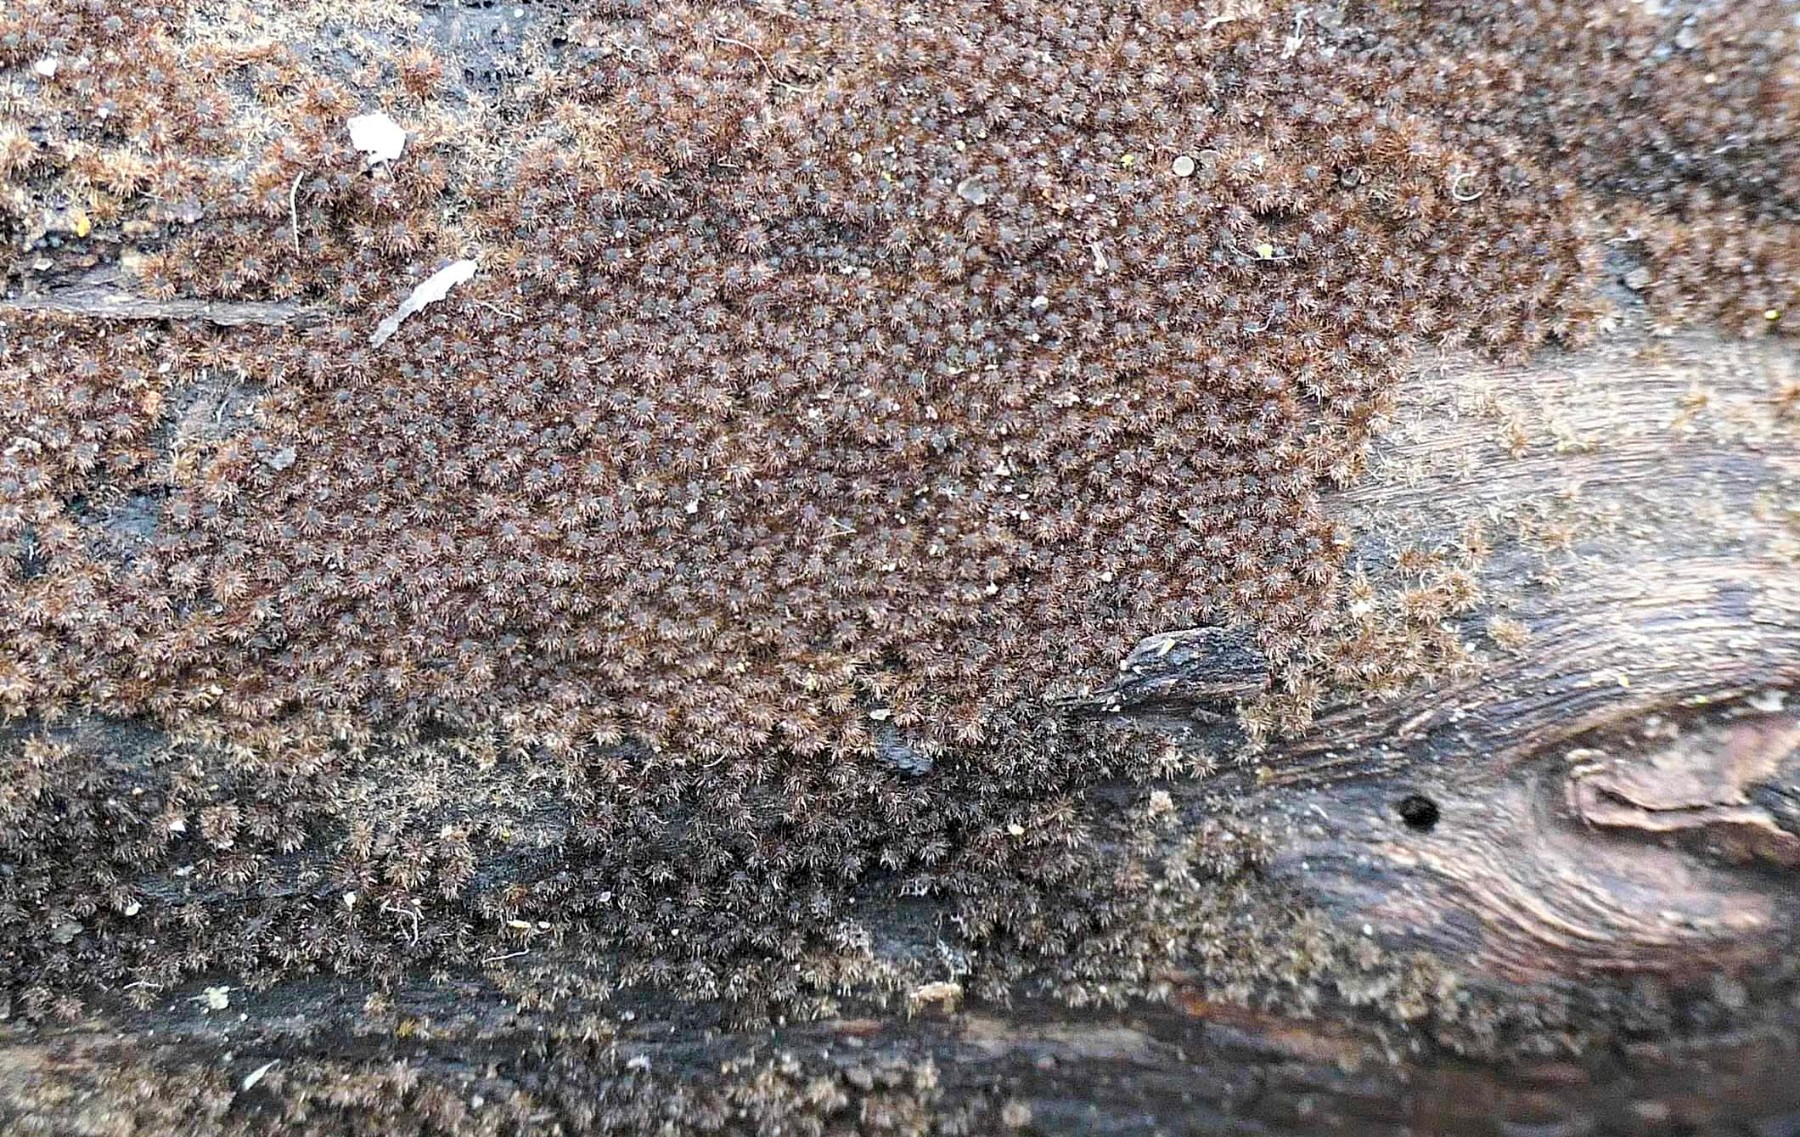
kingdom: Fungi
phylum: Ascomycota
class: Sordariomycetes
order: Sordariales
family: Helminthosphaeriaceae
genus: Echinosphaeria
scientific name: Echinosphaeria canescens
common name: brun børstekerne
